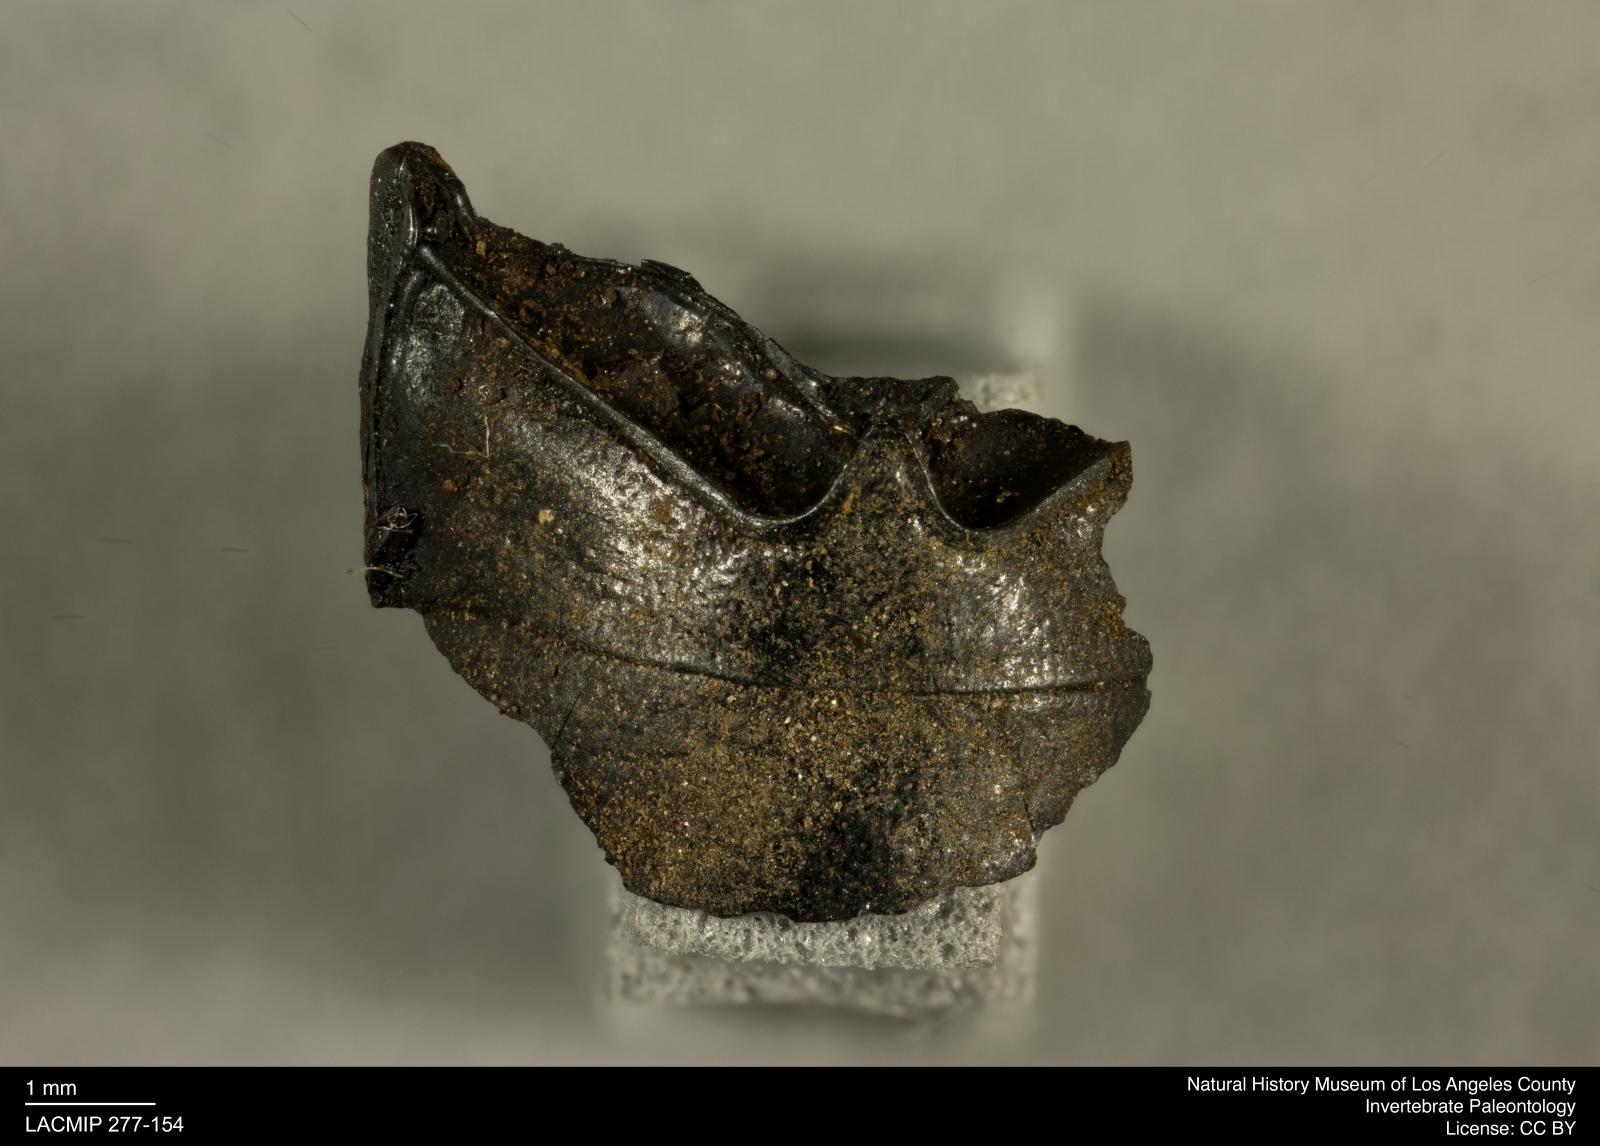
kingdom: Animalia
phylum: Arthropoda
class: Insecta
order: Coleoptera
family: Tenebrionidae
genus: Coniontis
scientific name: Coniontis abdominalis
